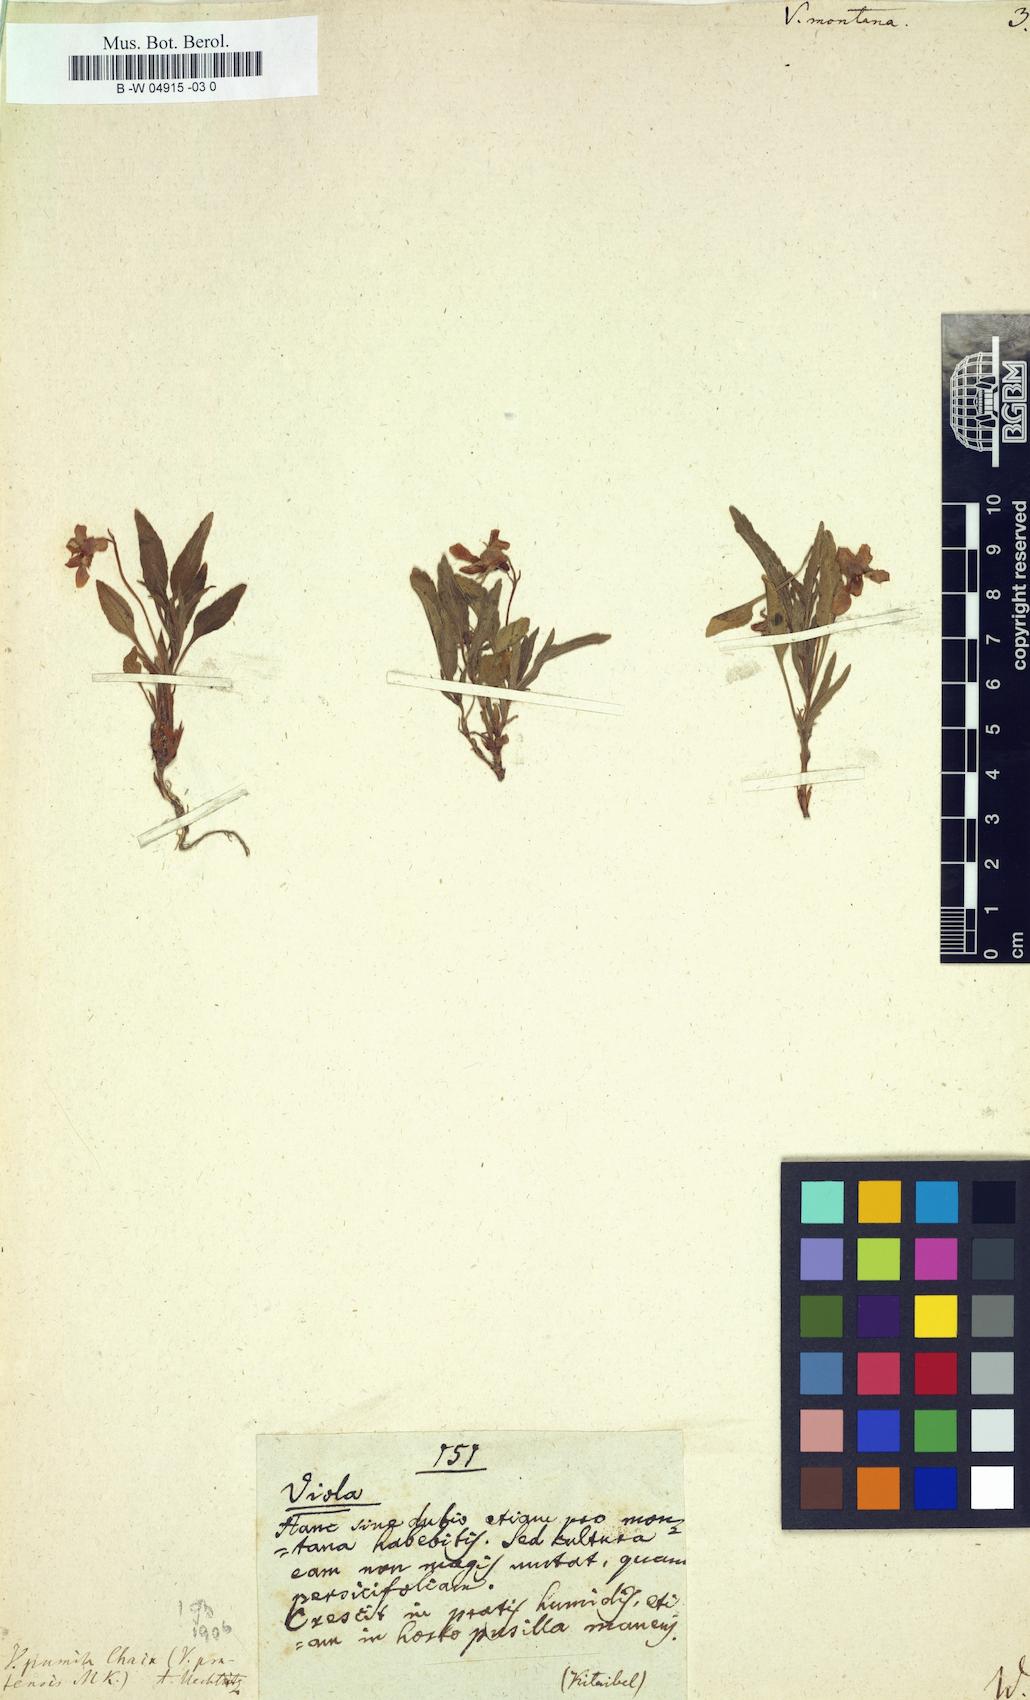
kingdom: Plantae
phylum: Tracheophyta
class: Magnoliopsida
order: Malpighiales
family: Violaceae
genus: Viola
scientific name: Viola
